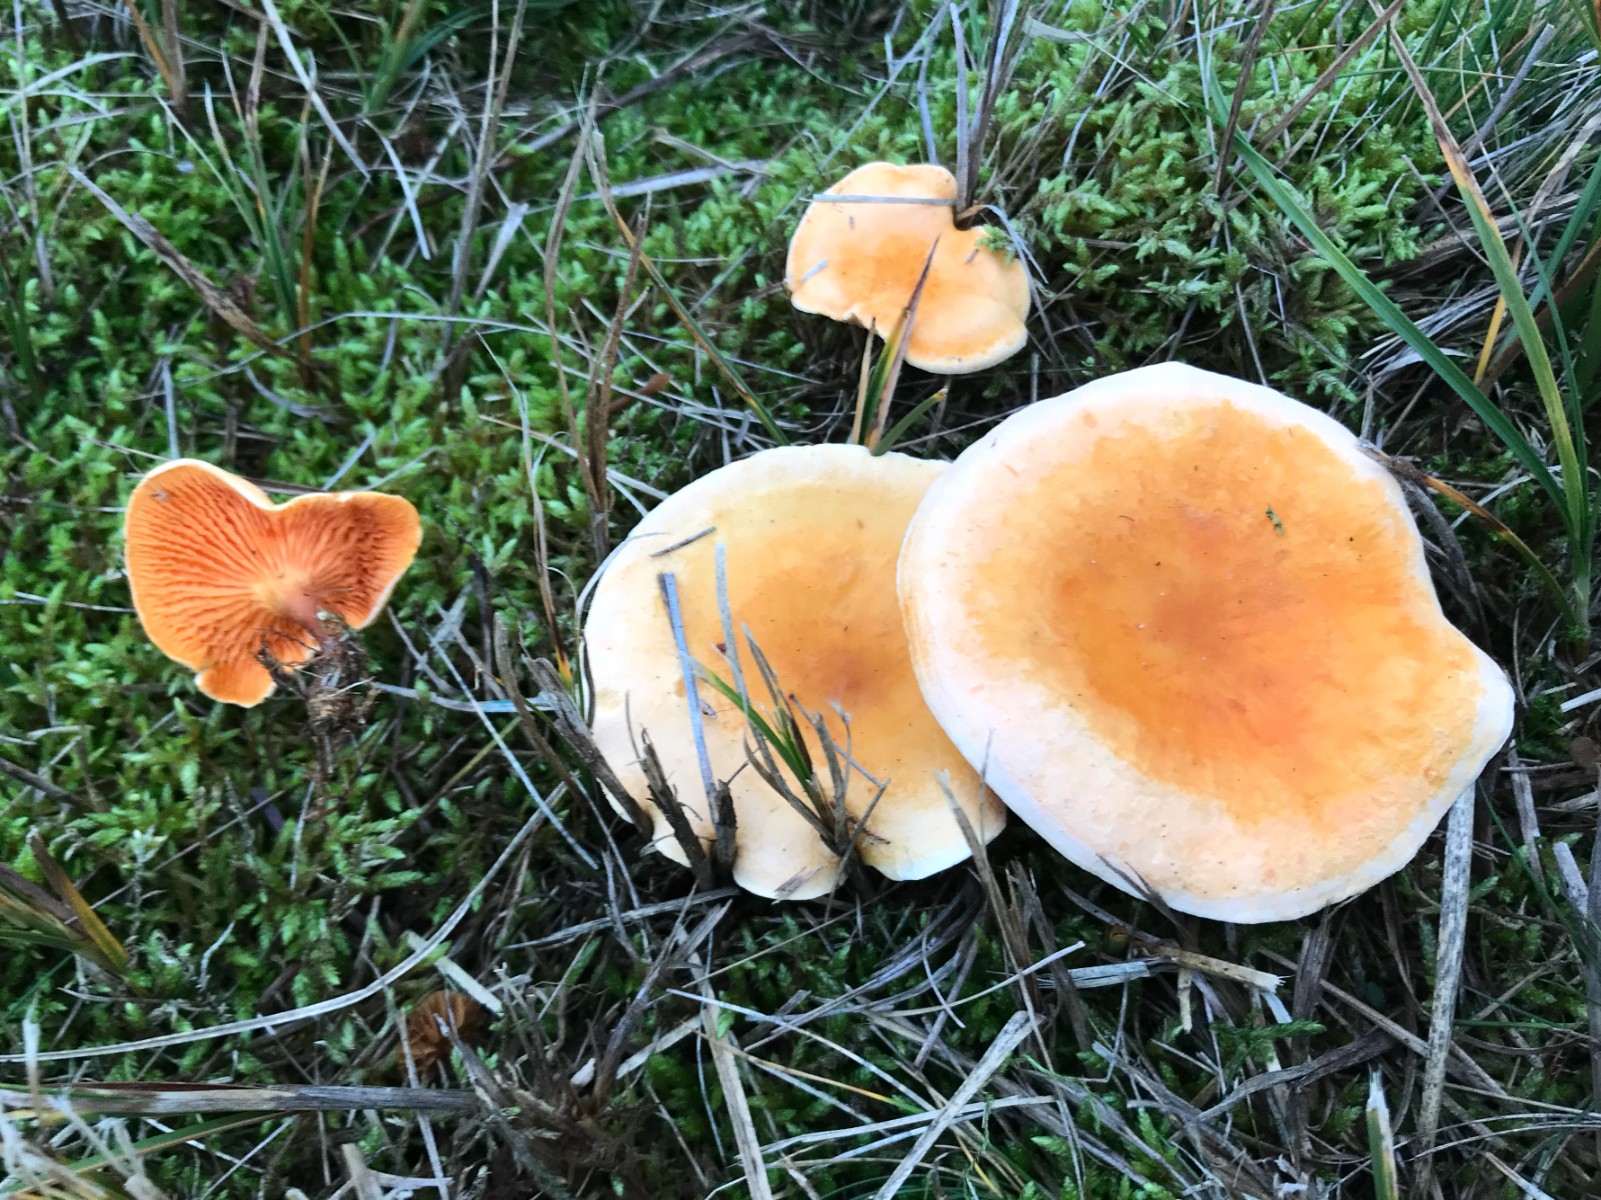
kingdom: Fungi
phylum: Basidiomycota
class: Agaricomycetes
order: Boletales
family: Hygrophoropsidaceae
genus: Hygrophoropsis
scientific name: Hygrophoropsis aurantiaca
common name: almindelig orangekantarel
